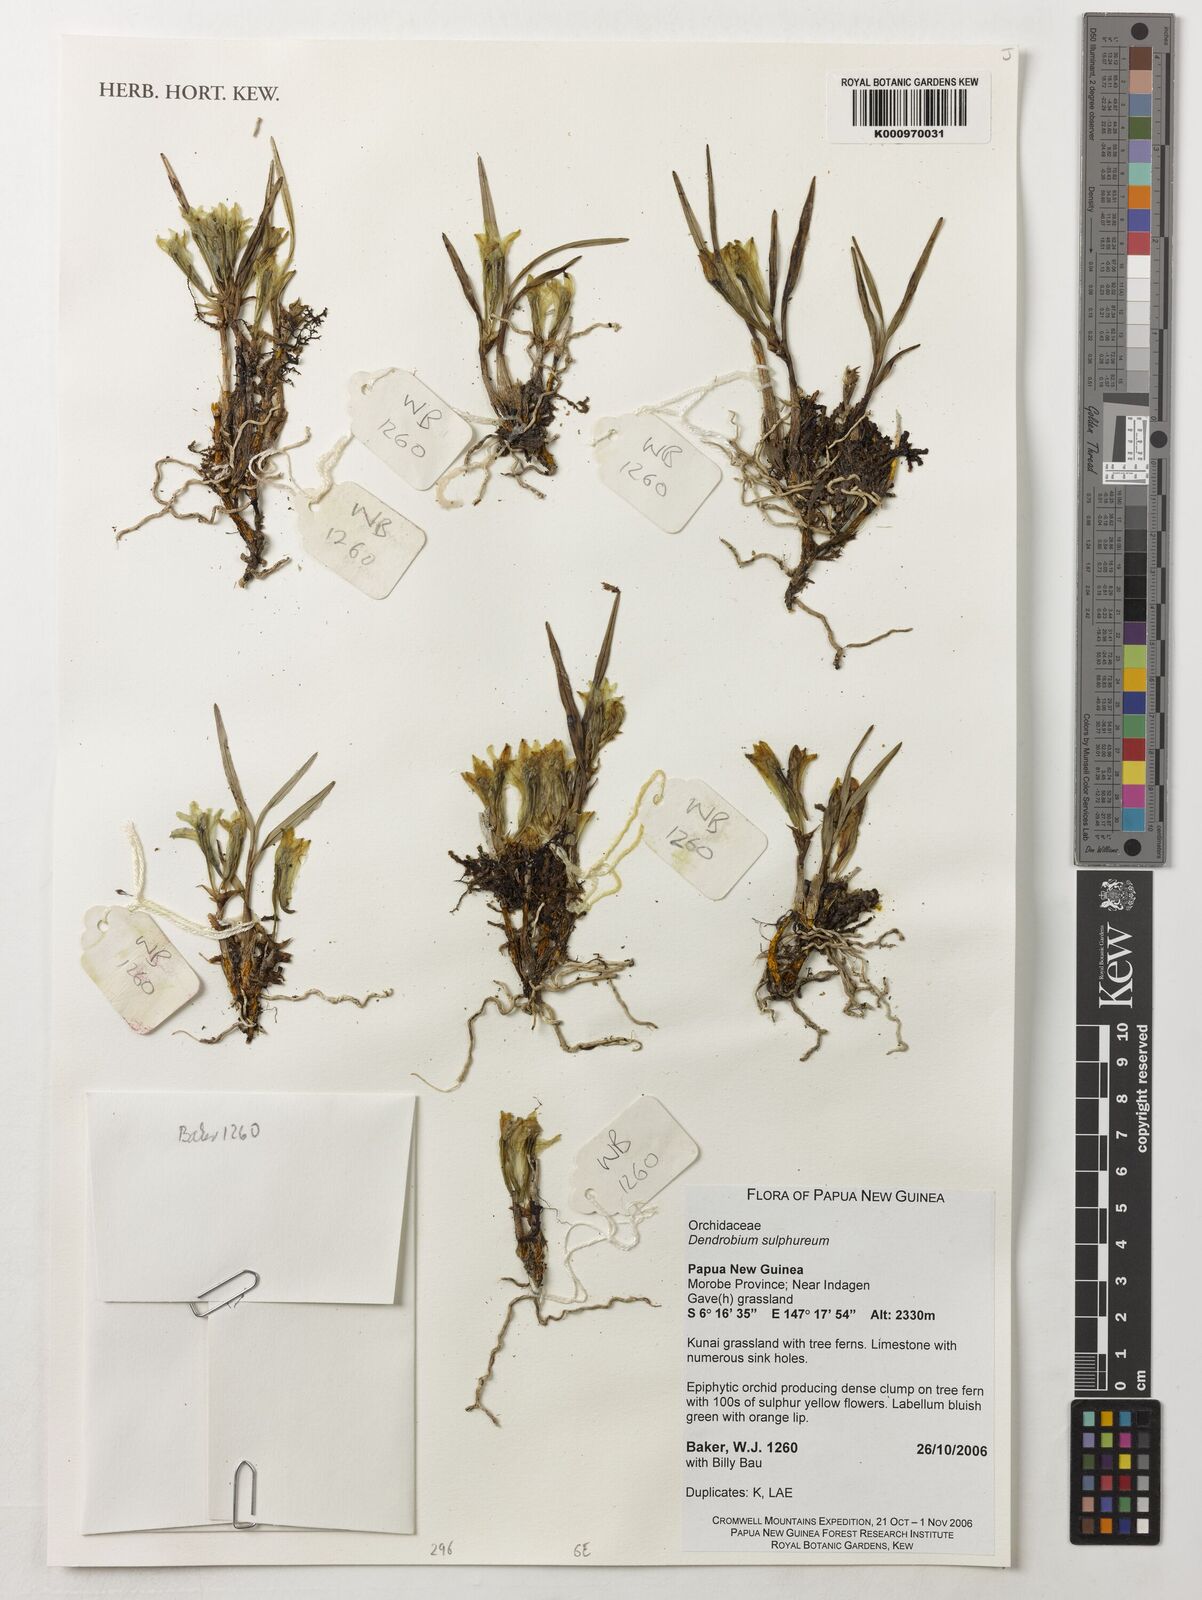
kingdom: Plantae
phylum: Tracheophyta
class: Liliopsida
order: Asparagales
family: Orchidaceae
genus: Dendrobium
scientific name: Dendrobium sulphureum
